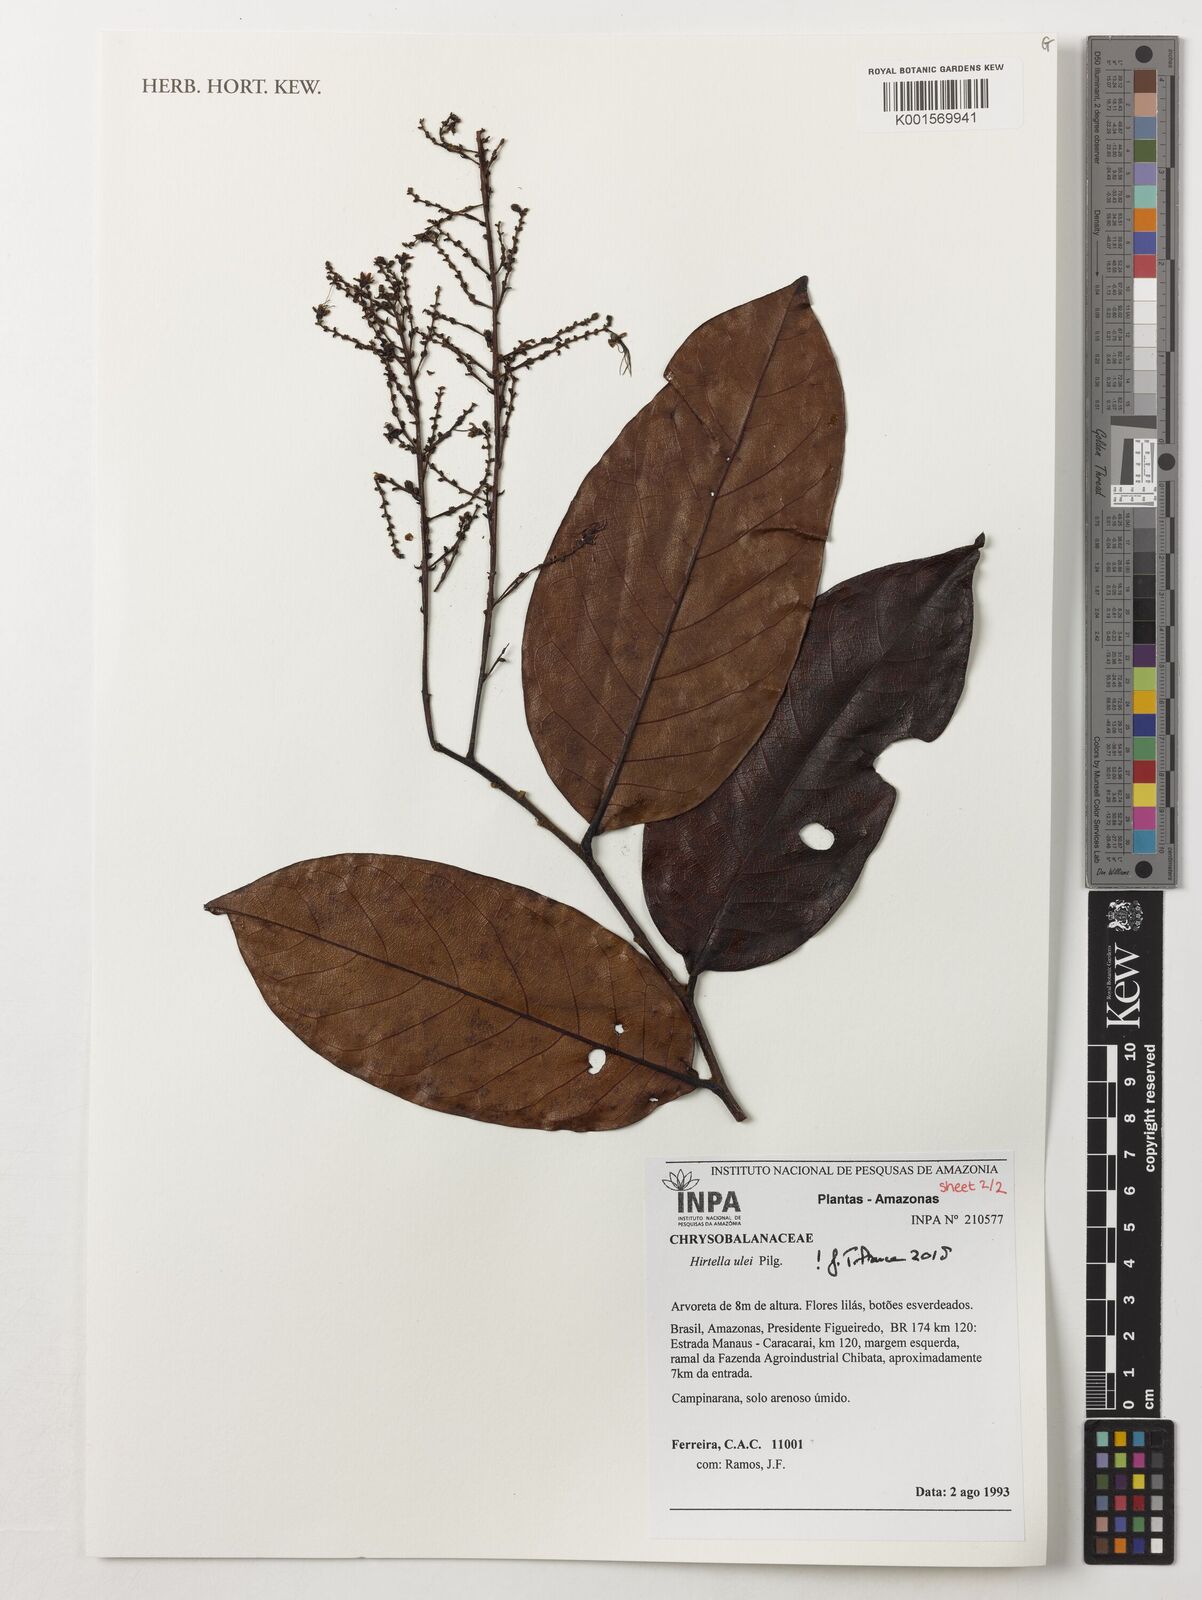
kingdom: Plantae
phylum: Tracheophyta
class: Magnoliopsida
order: Malpighiales
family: Chrysobalanaceae
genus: Hirtella
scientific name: Hirtella ulei
